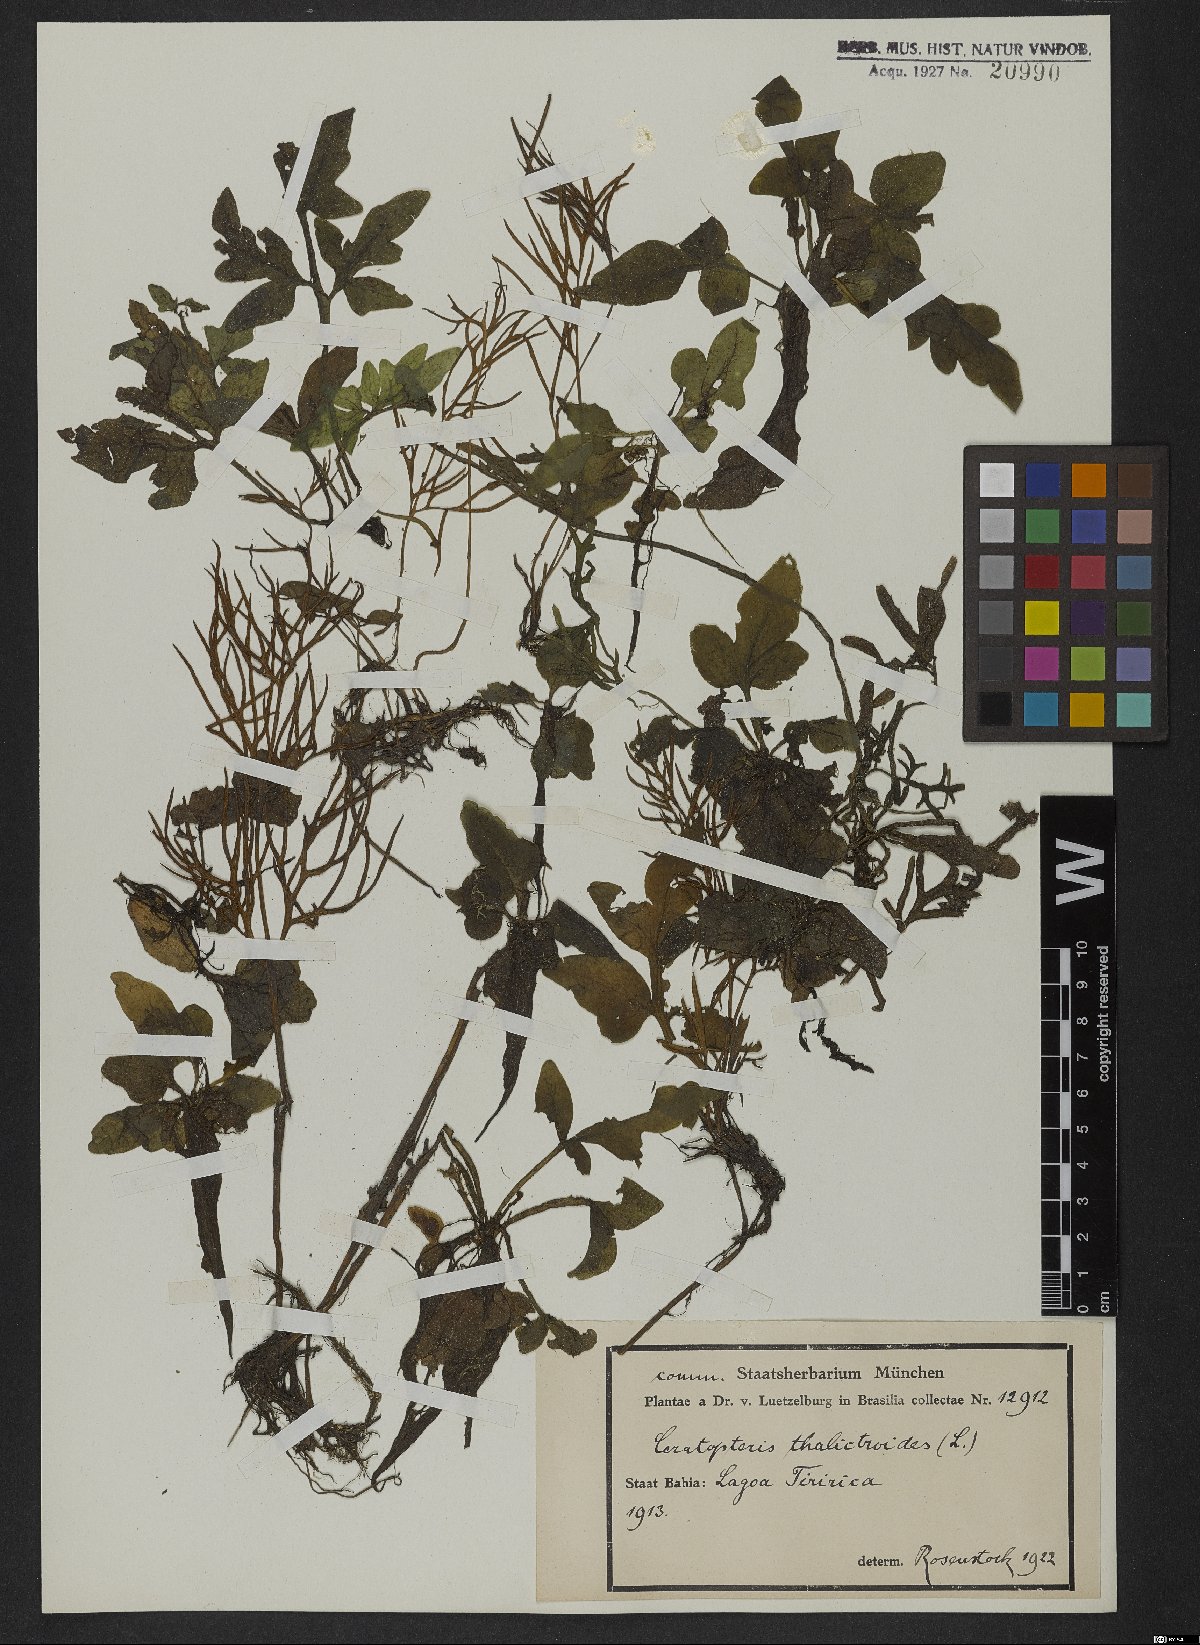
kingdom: Plantae
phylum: Tracheophyta
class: Polypodiopsida
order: Polypodiales
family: Pteridaceae
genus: Ceratopteris
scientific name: Ceratopteris thalictroides
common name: Water fern
